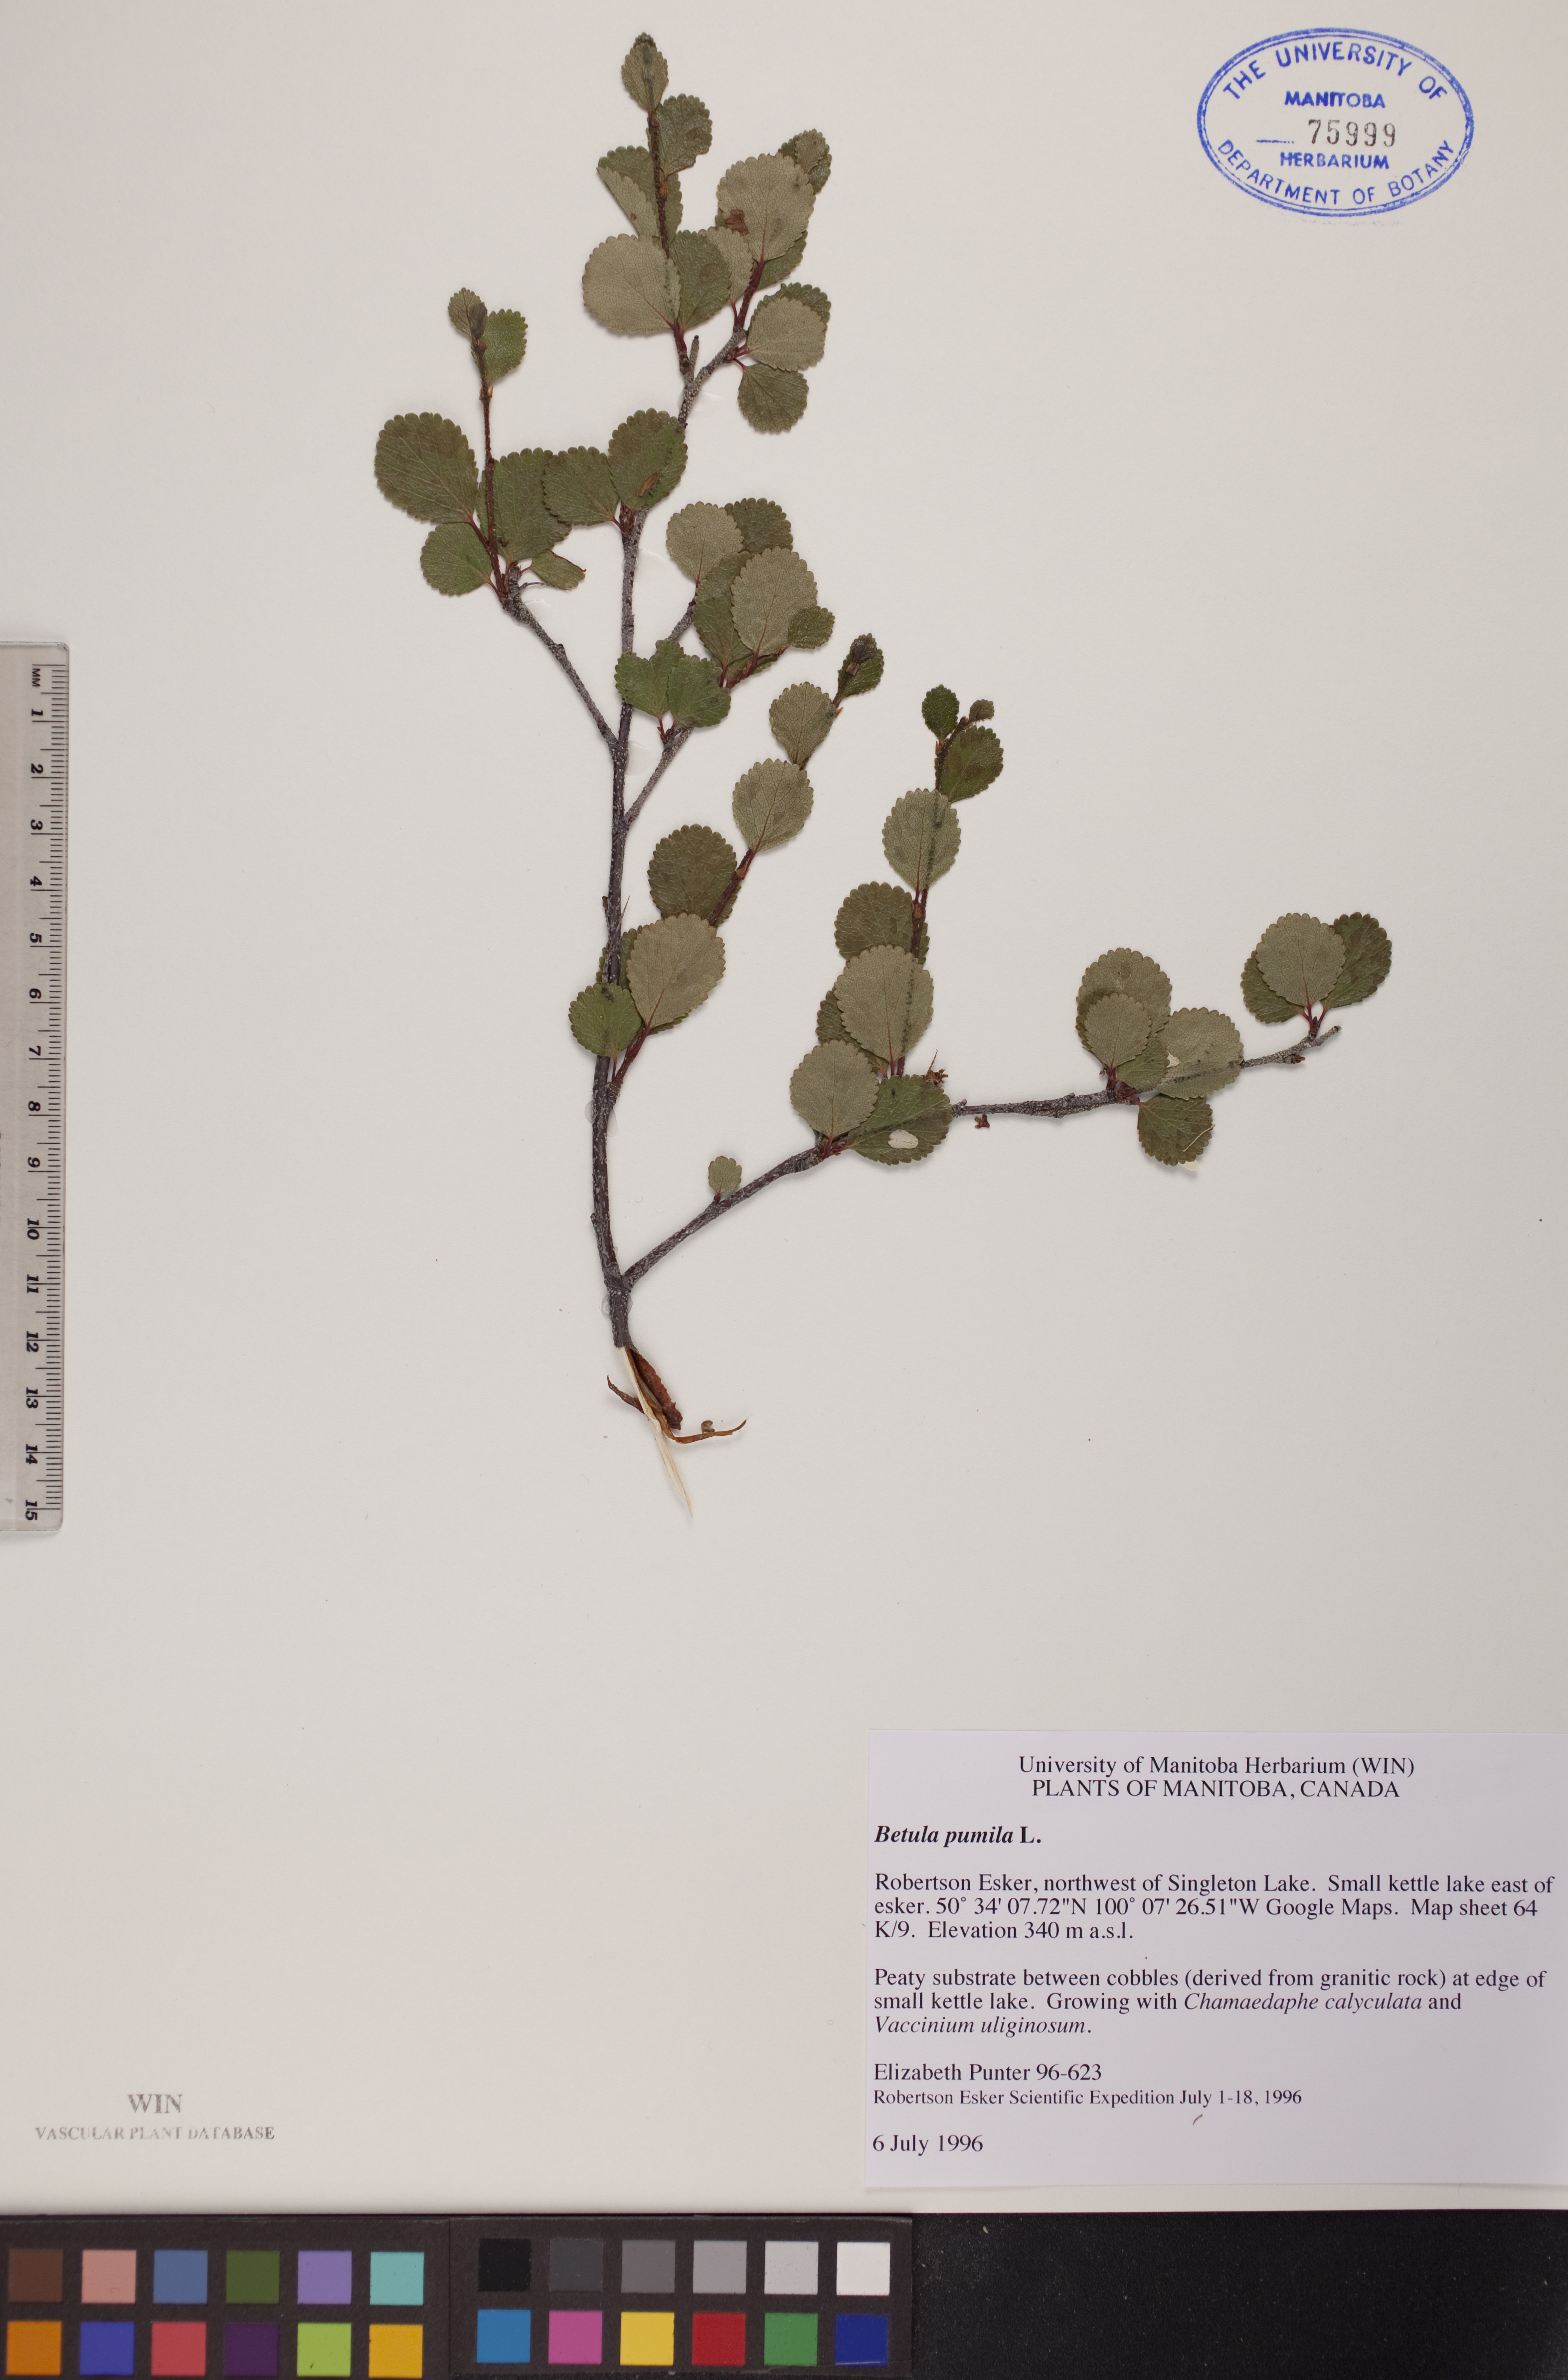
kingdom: Plantae
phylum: Tracheophyta
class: Magnoliopsida
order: Fagales
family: Betulaceae
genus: Betula
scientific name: Betula pumila
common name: Bog birch
